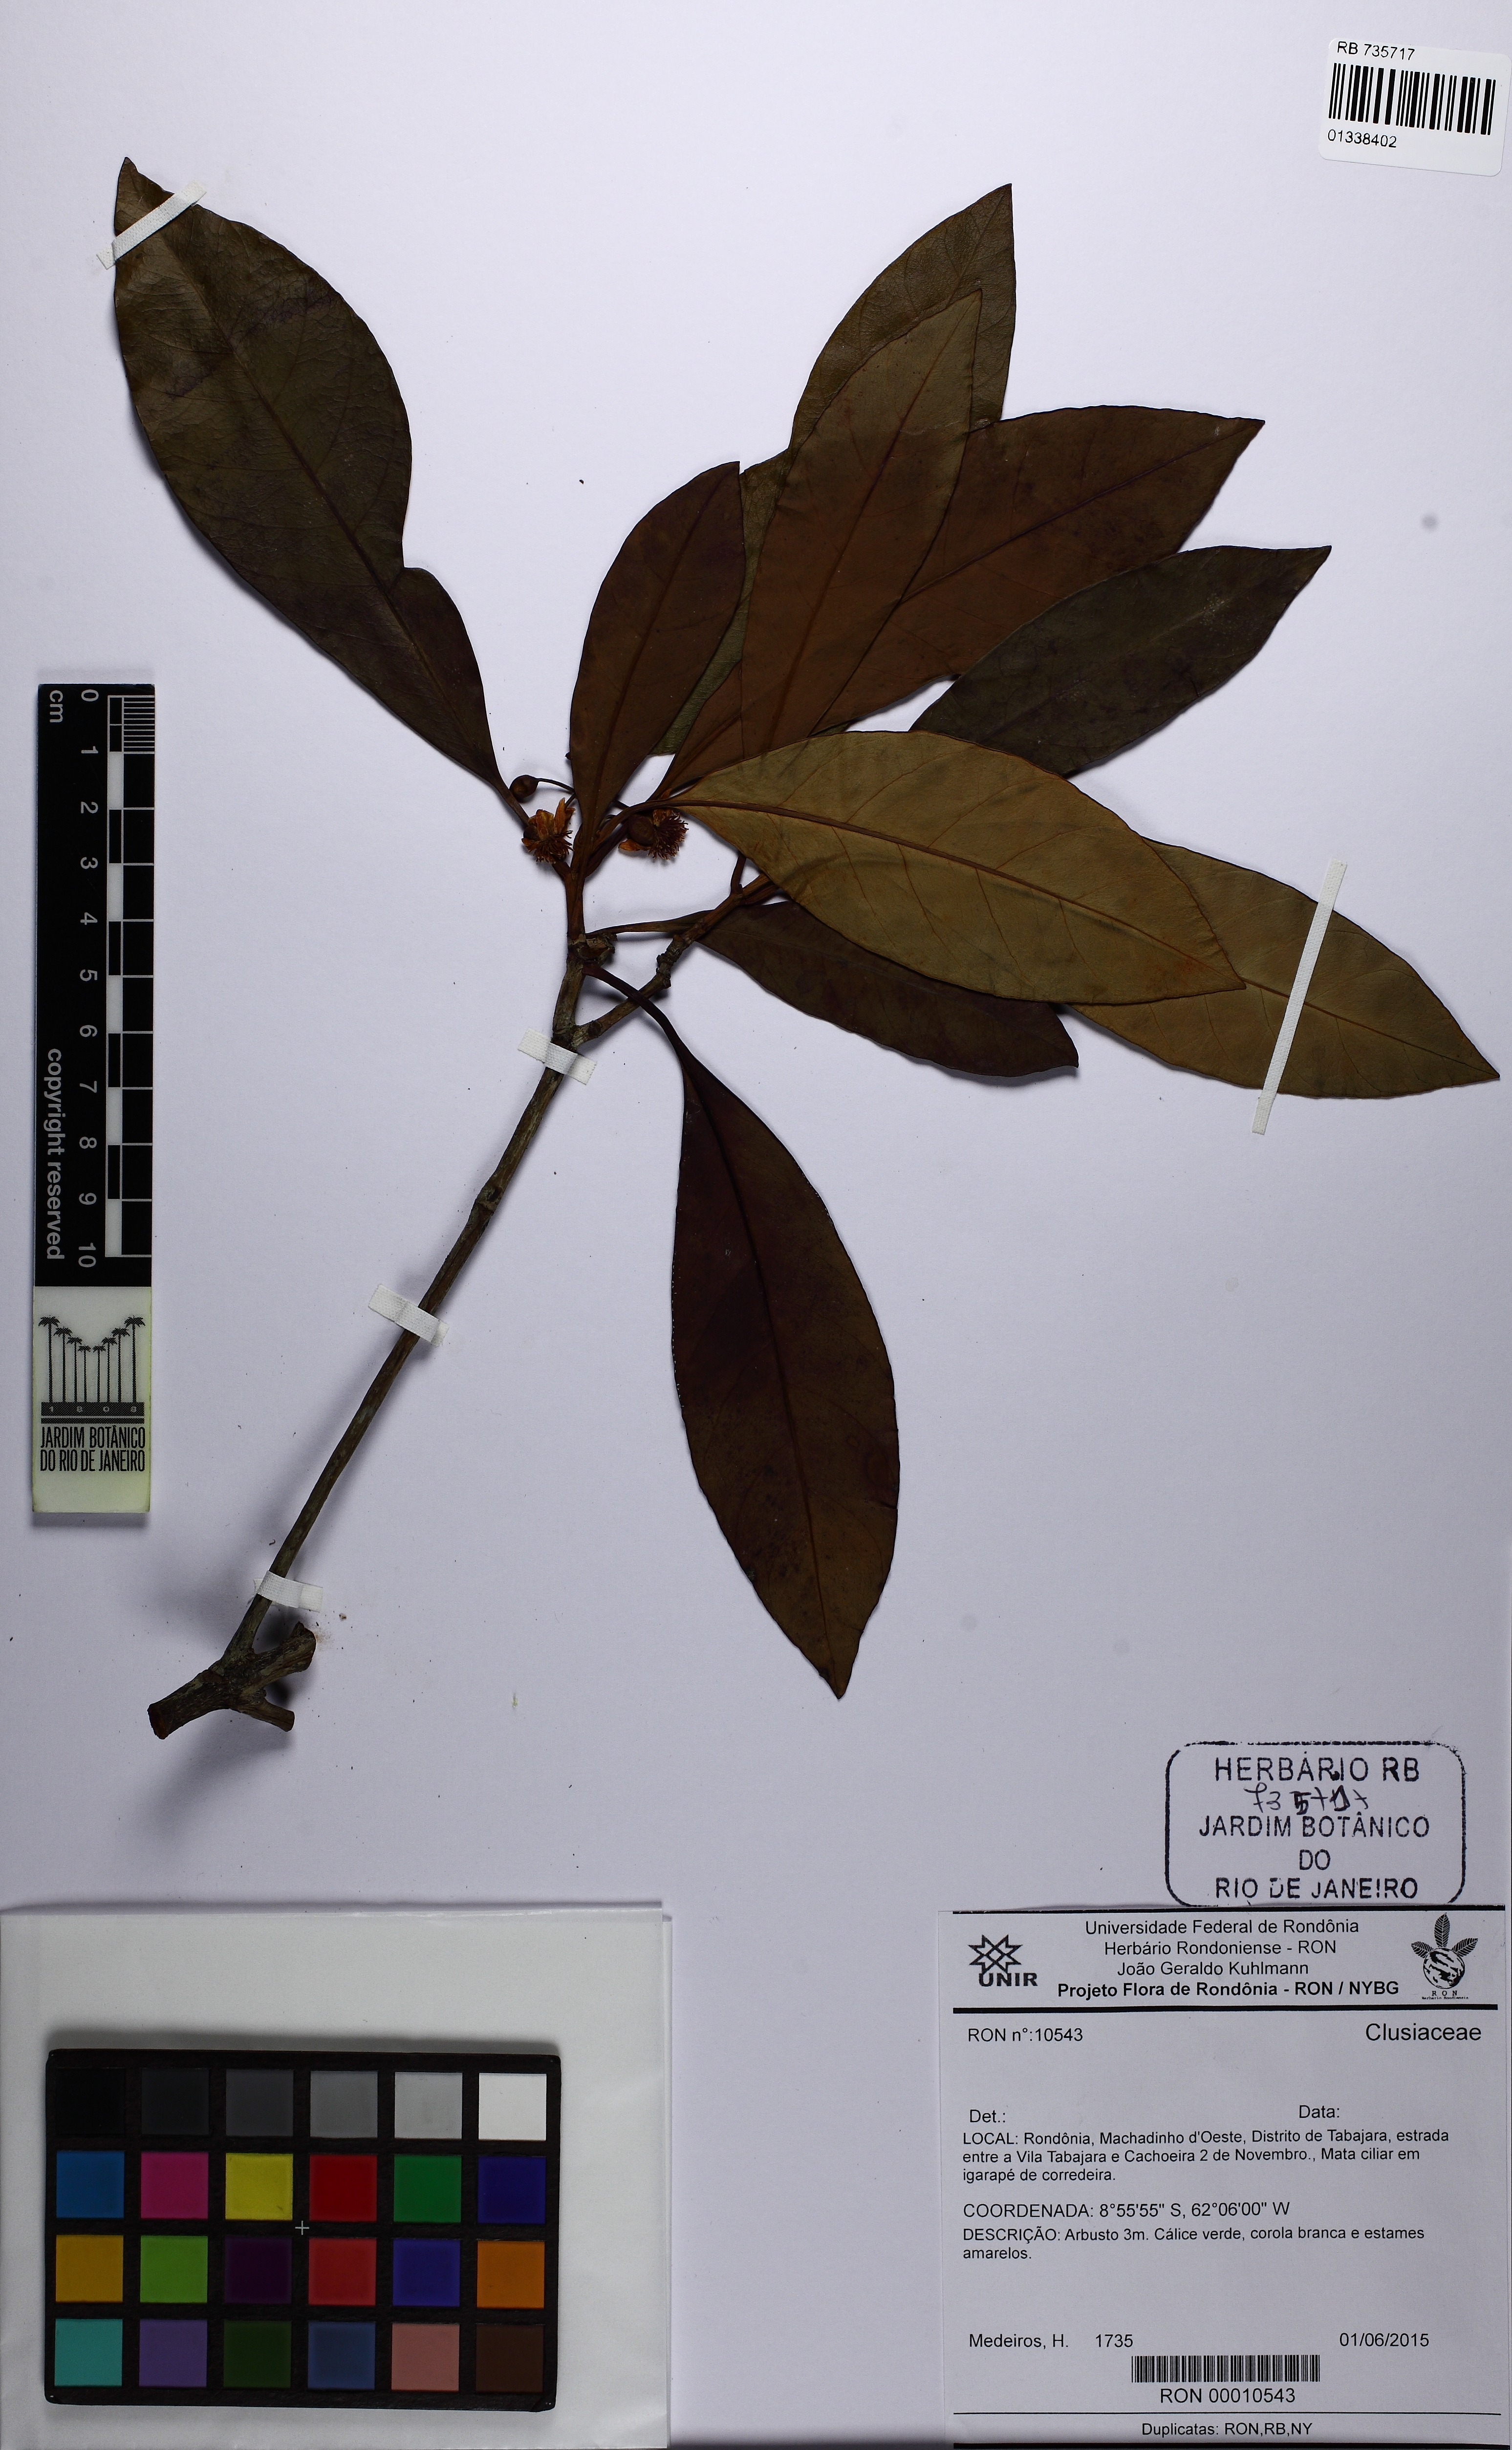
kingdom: Plantae
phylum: Tracheophyta
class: Magnoliopsida
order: Malpighiales
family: Clusiaceae
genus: Tovomita
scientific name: Tovomita laurina
